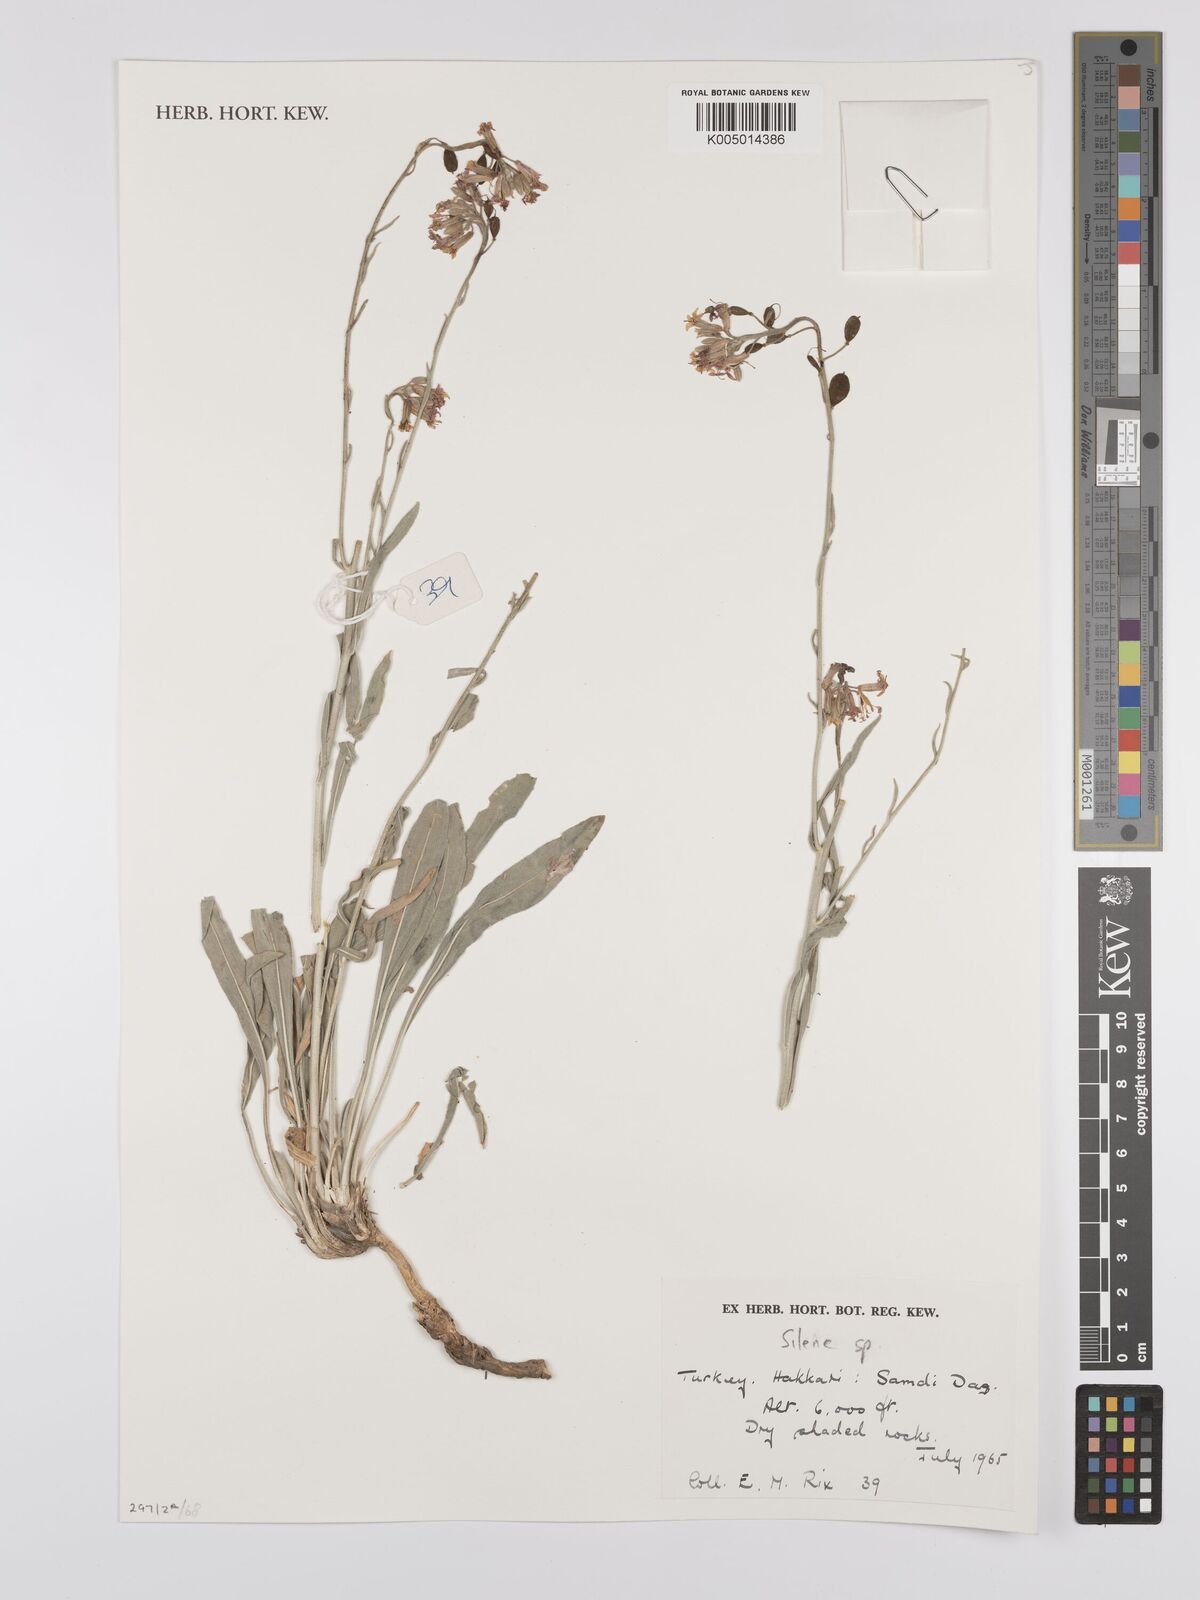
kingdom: Plantae
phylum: Tracheophyta
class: Magnoliopsida
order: Caryophyllales
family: Caryophyllaceae
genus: Silene
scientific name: Silene
